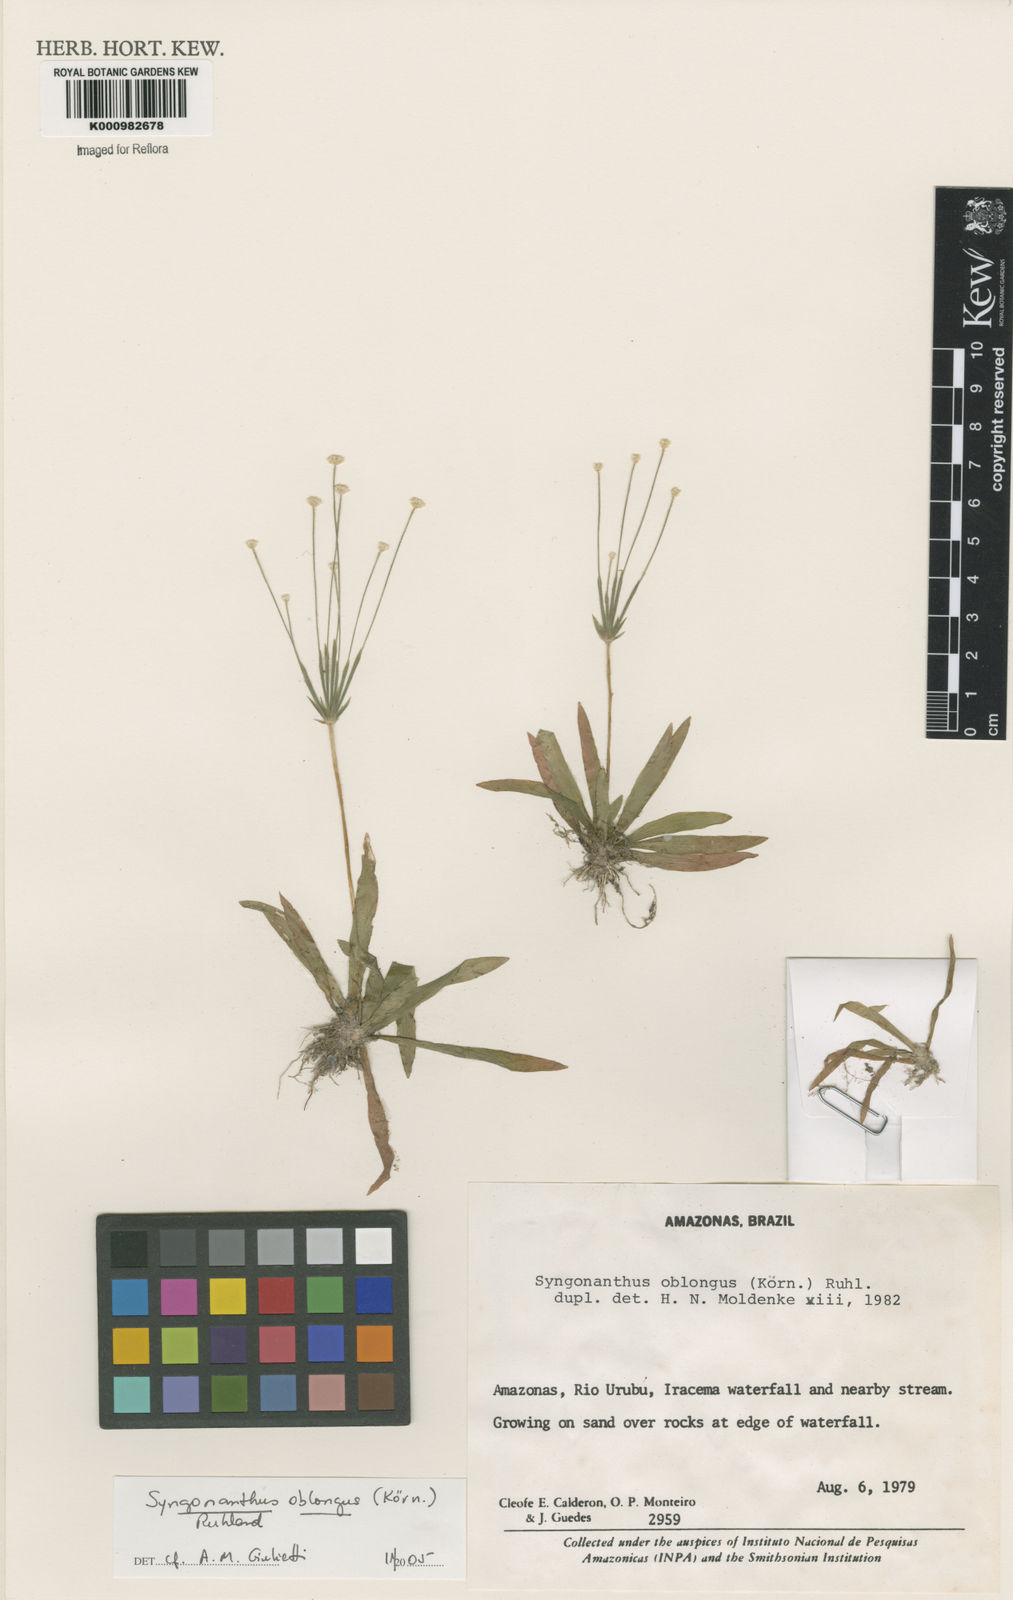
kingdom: Plantae
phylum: Tracheophyta
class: Liliopsida
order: Poales
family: Eriocaulaceae
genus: Syngonanthus
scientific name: Syngonanthus
